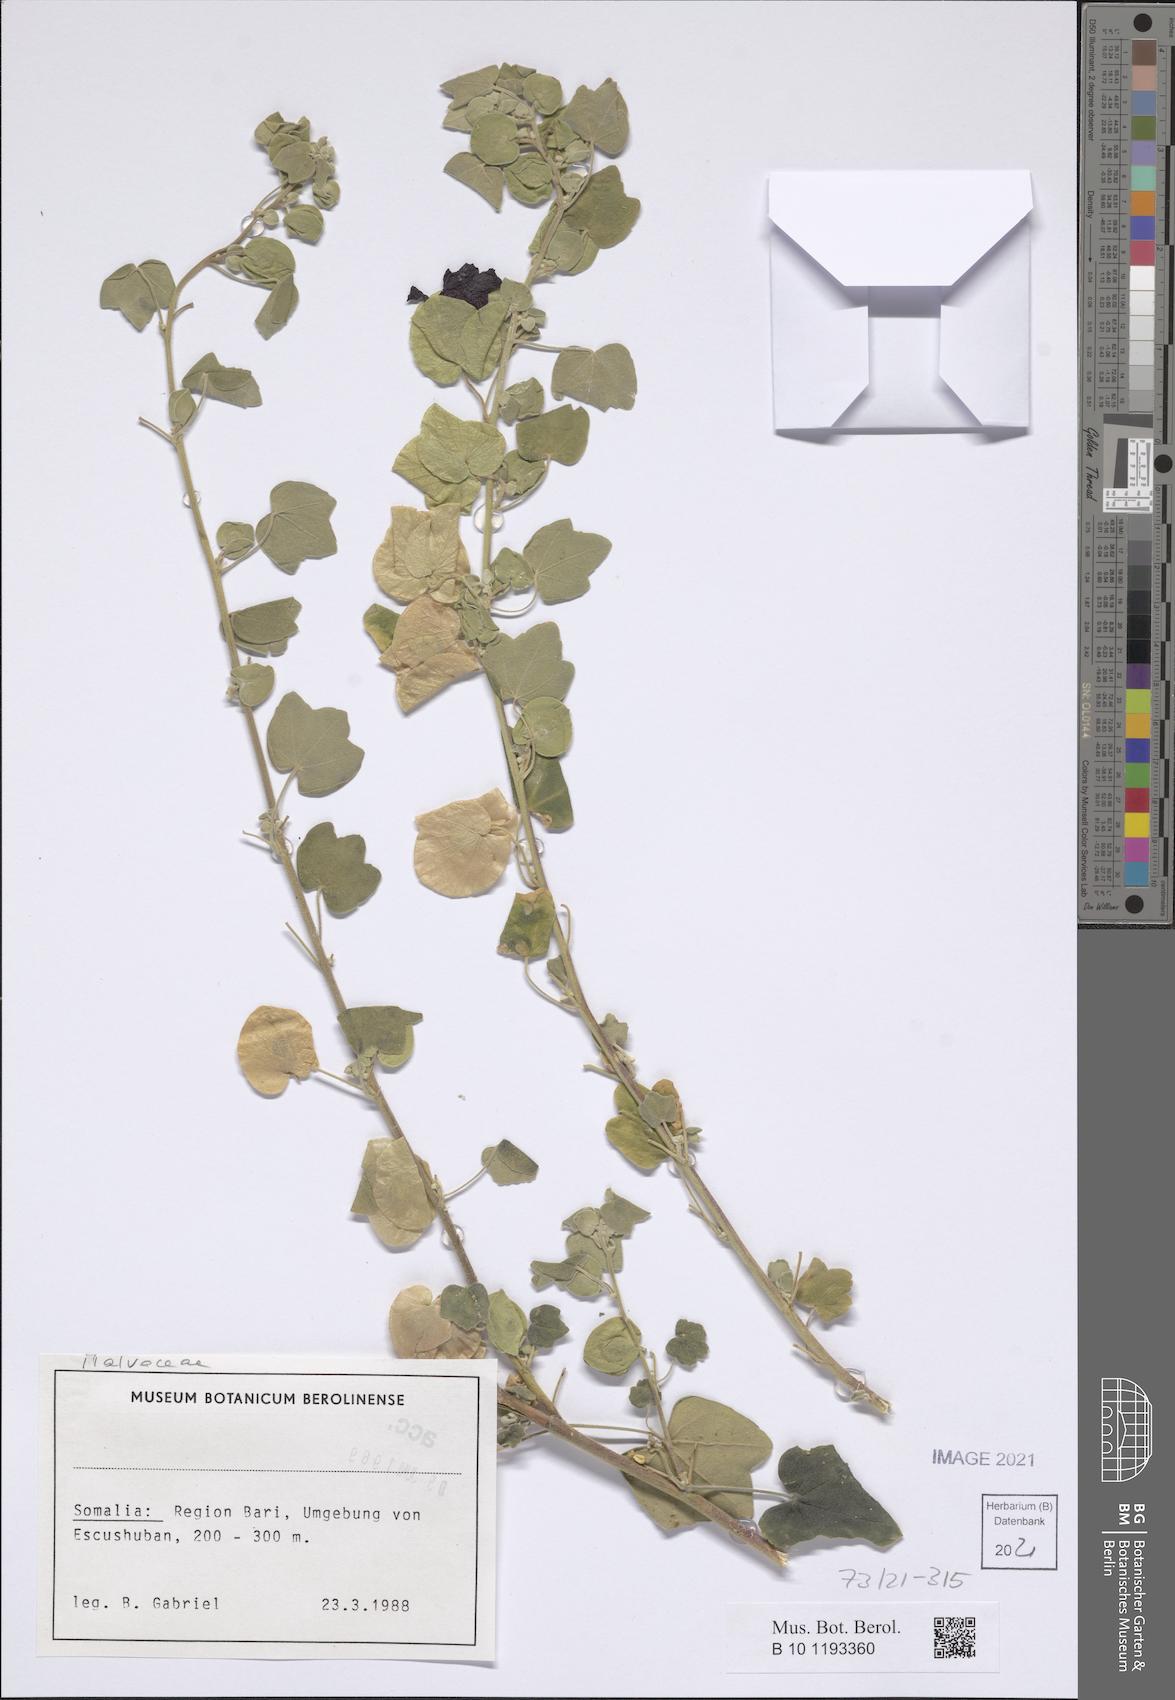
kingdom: Plantae
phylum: Tracheophyta
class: Magnoliopsida
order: Malvales
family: Malvaceae
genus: Senra
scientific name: Senra incana
